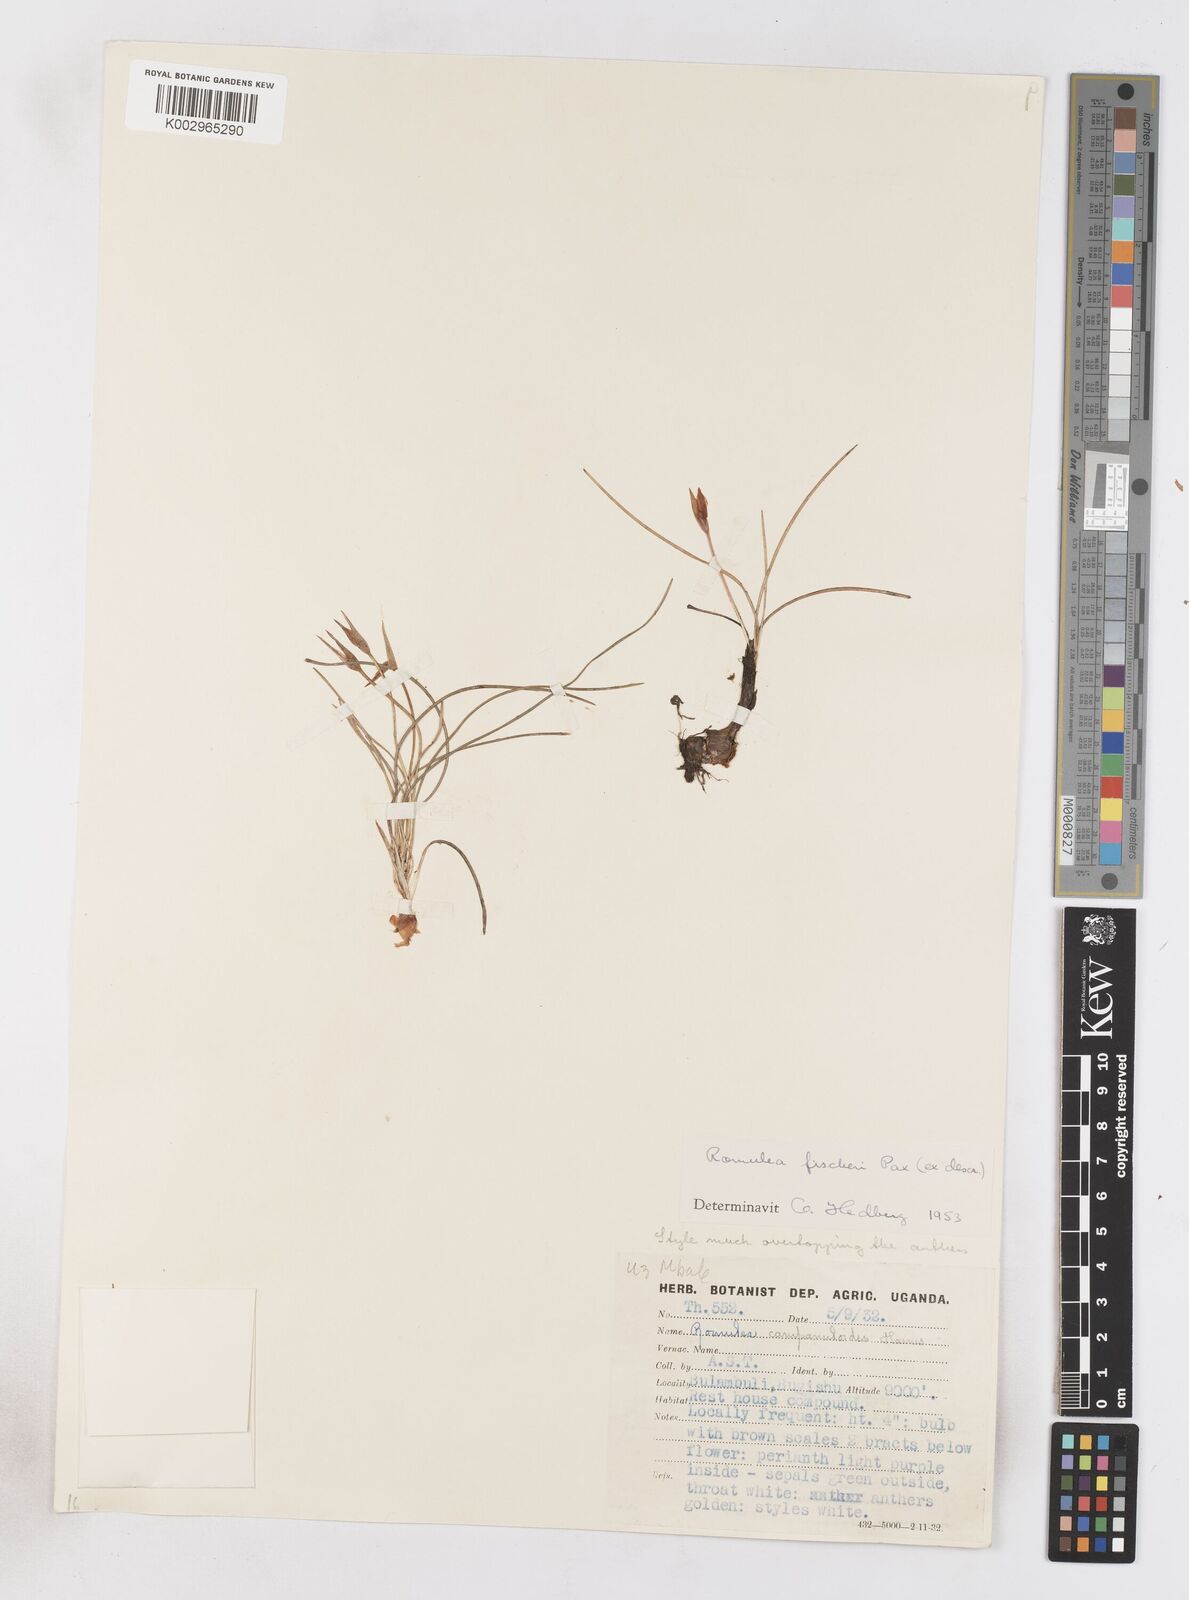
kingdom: Plantae
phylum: Tracheophyta
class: Liliopsida
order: Asparagales
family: Iridaceae
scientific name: Iridaceae
